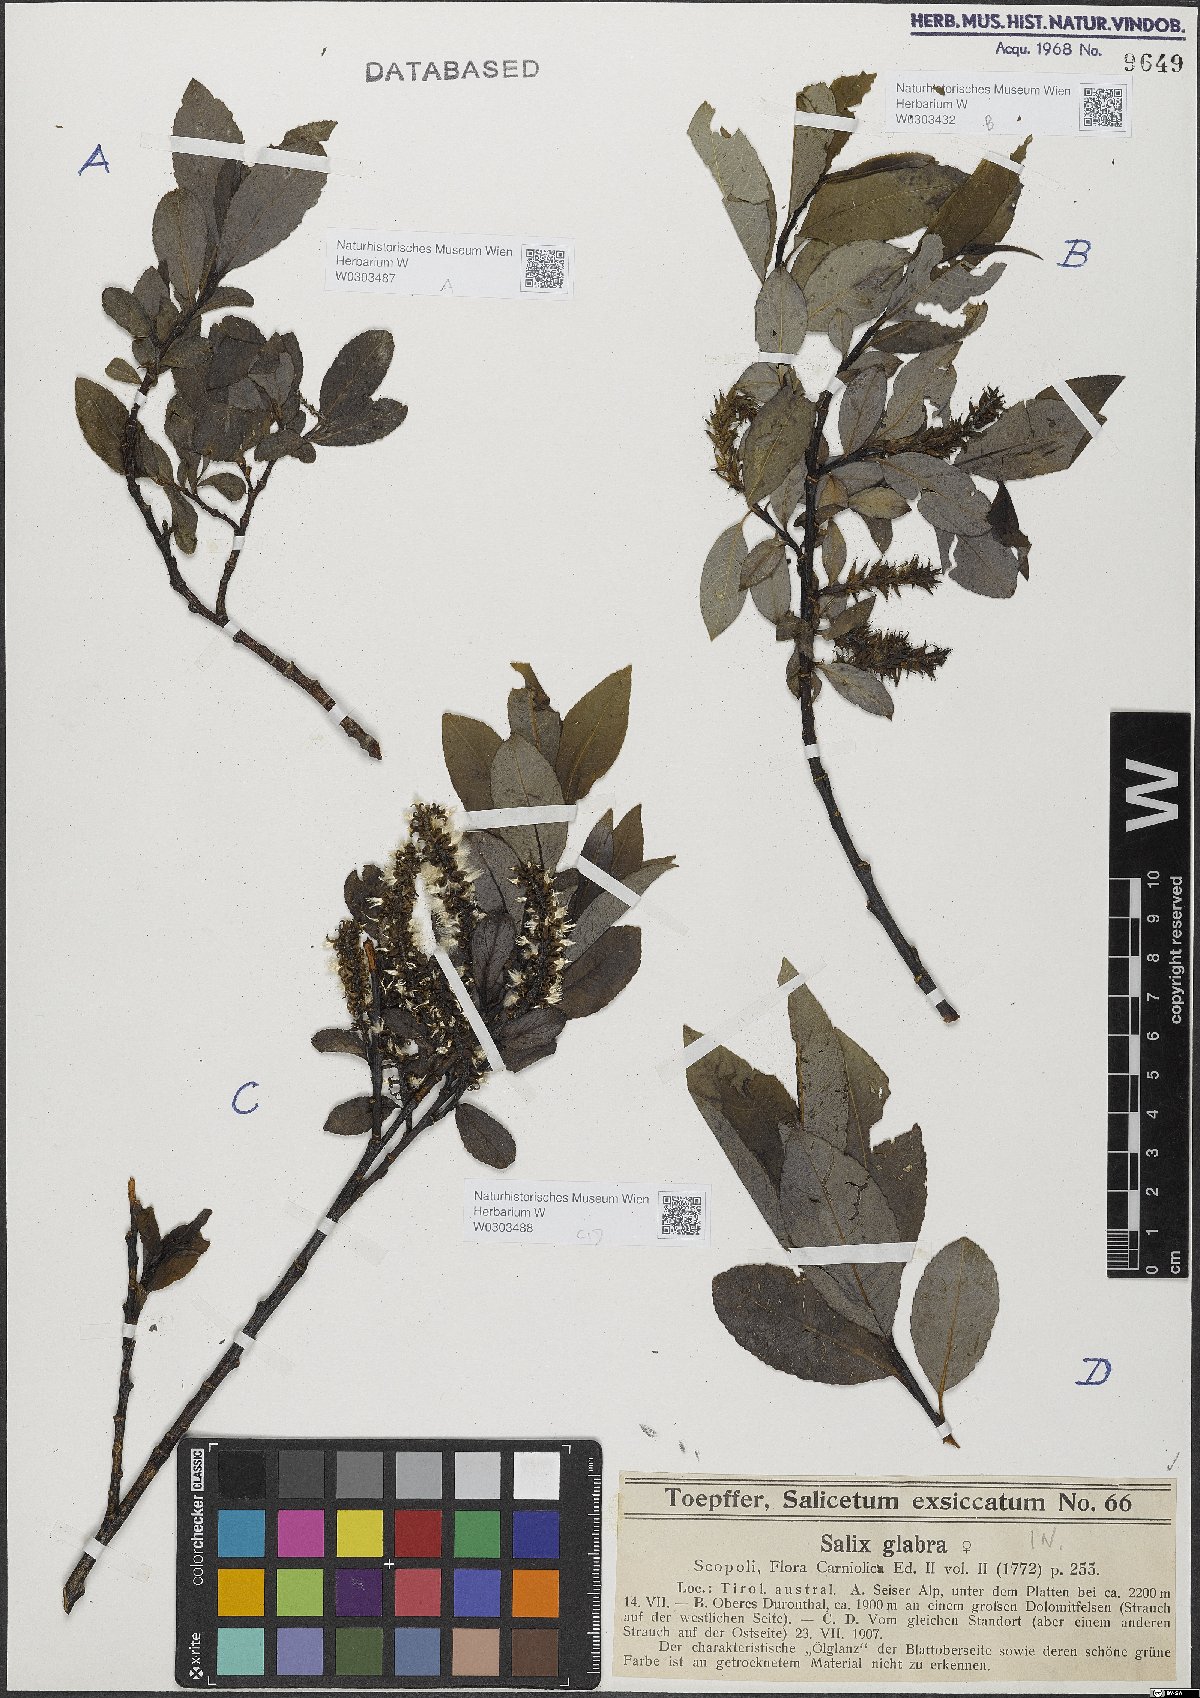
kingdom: Plantae
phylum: Tracheophyta
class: Magnoliopsida
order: Malpighiales
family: Salicaceae
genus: Salix
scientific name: Salix glabra
